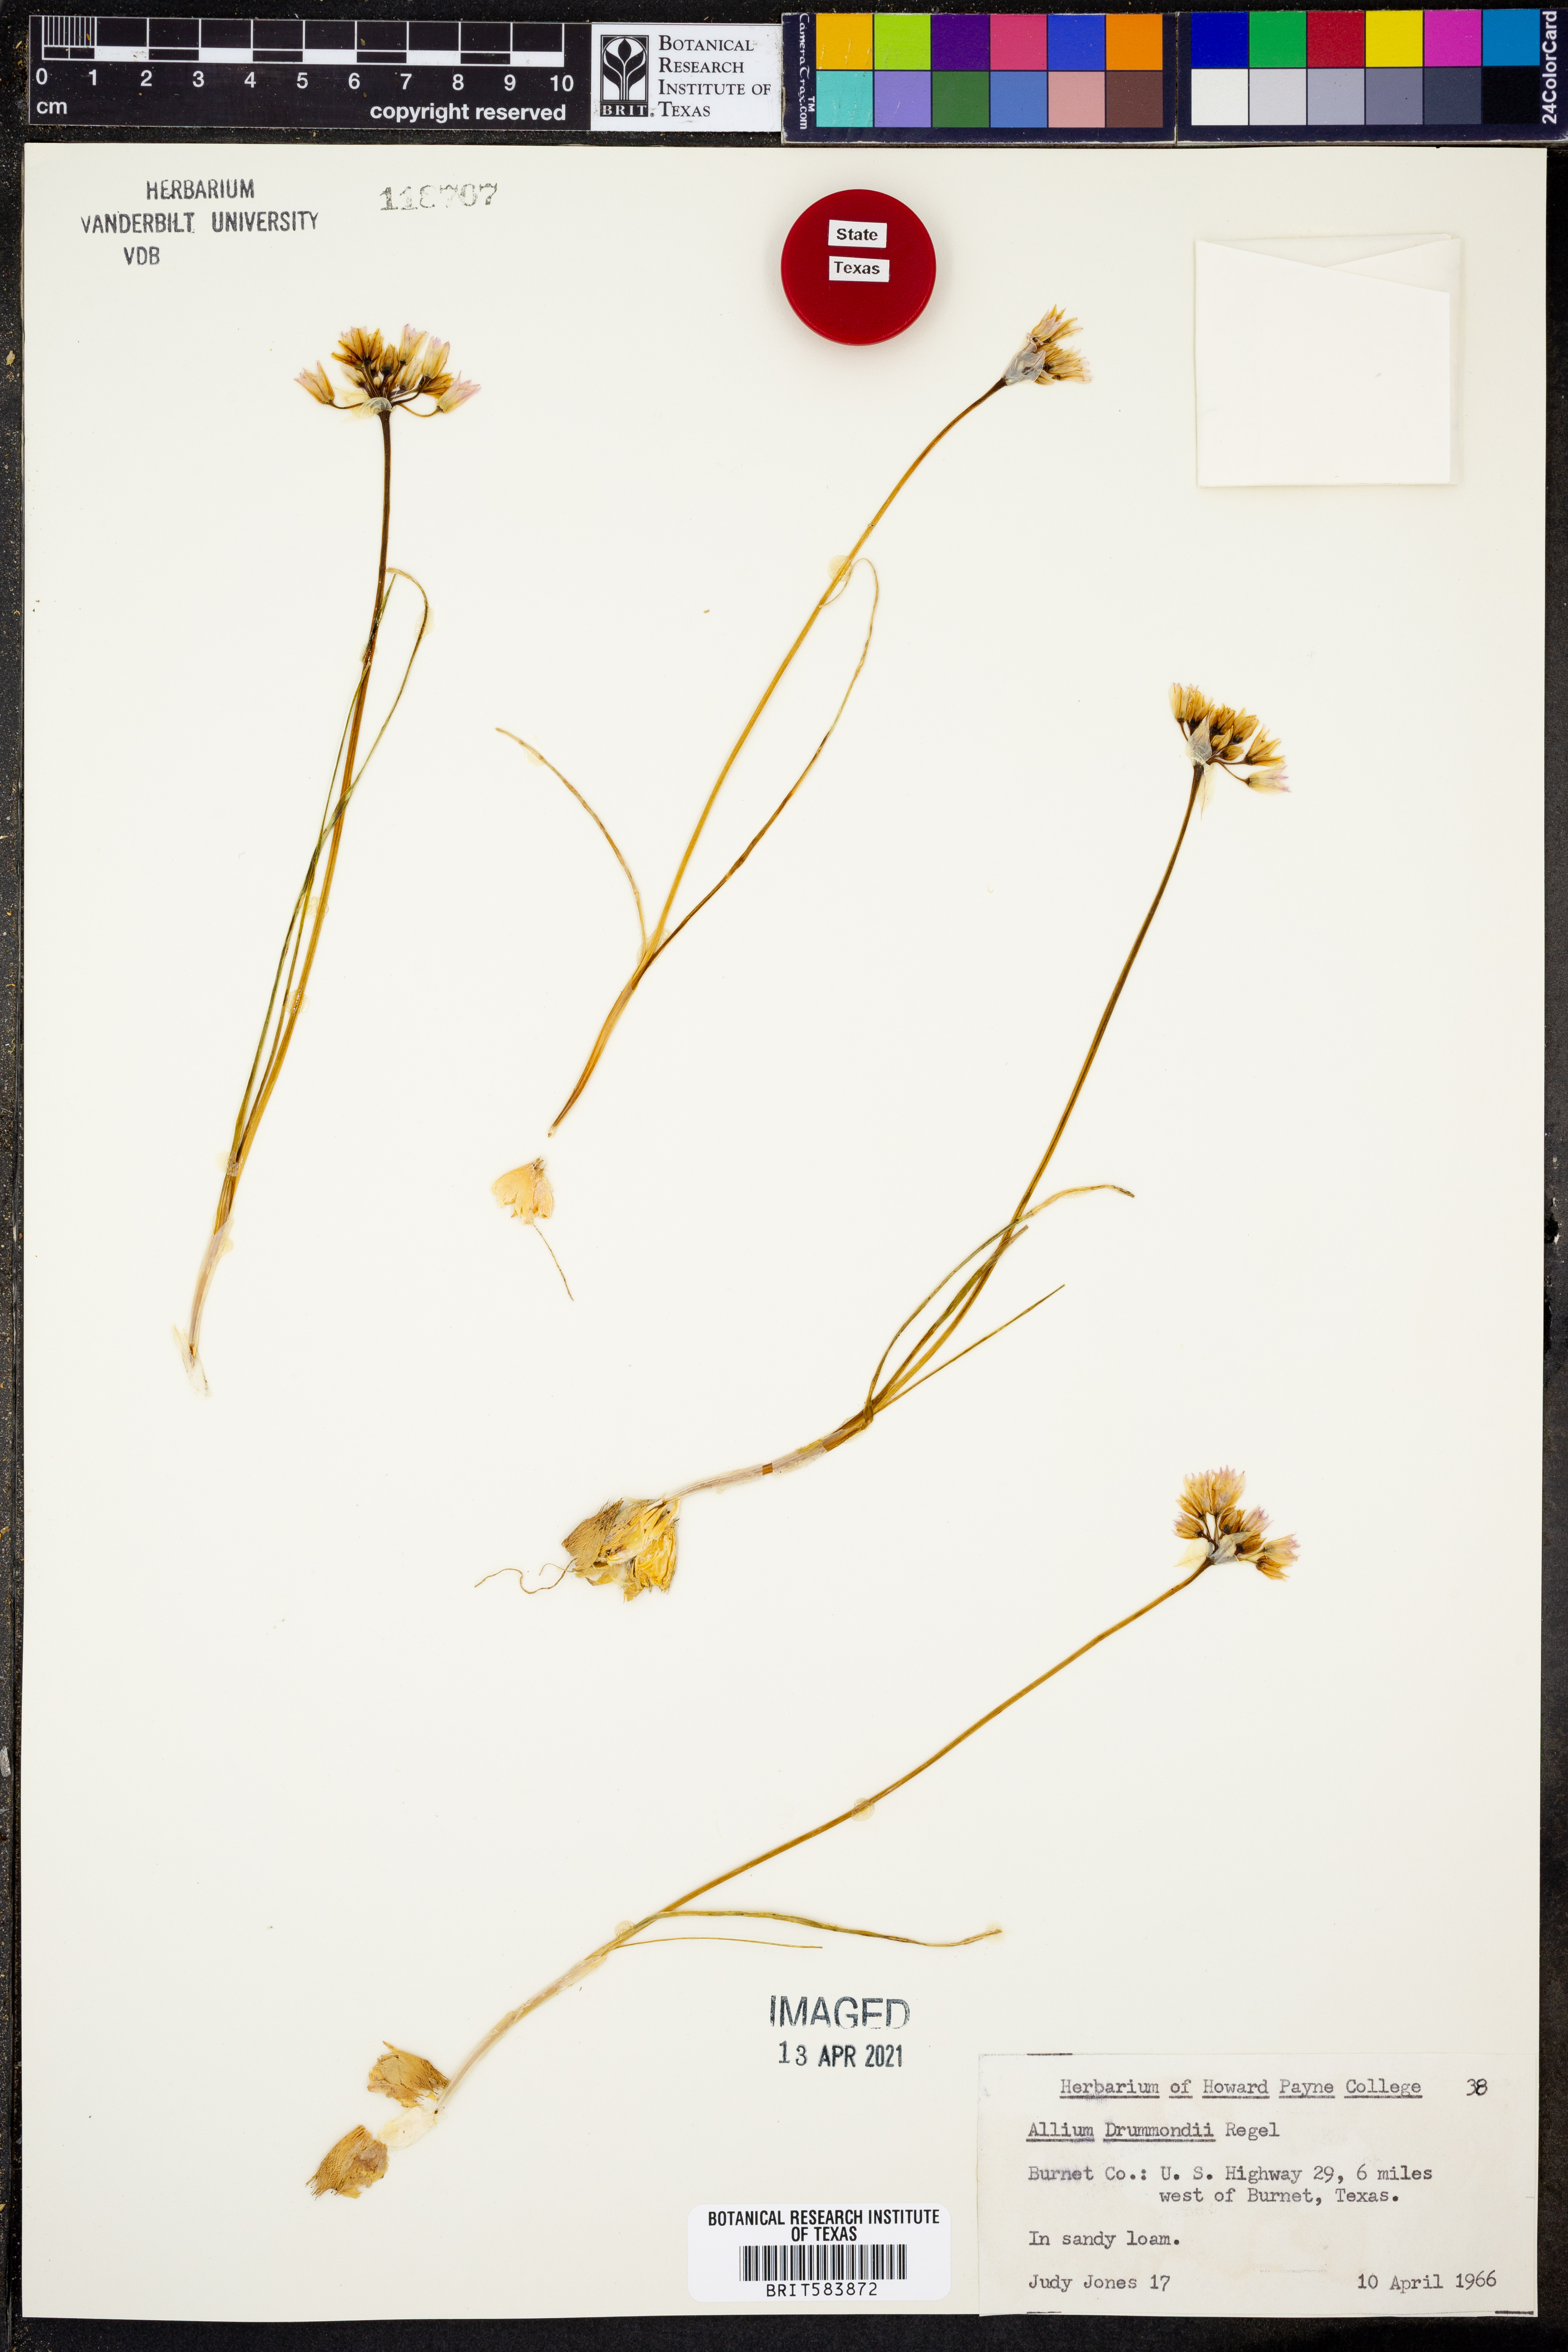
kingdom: Plantae
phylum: Tracheophyta
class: Liliopsida
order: Asparagales
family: Amaryllidaceae
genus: Allium
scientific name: Allium drummondii
